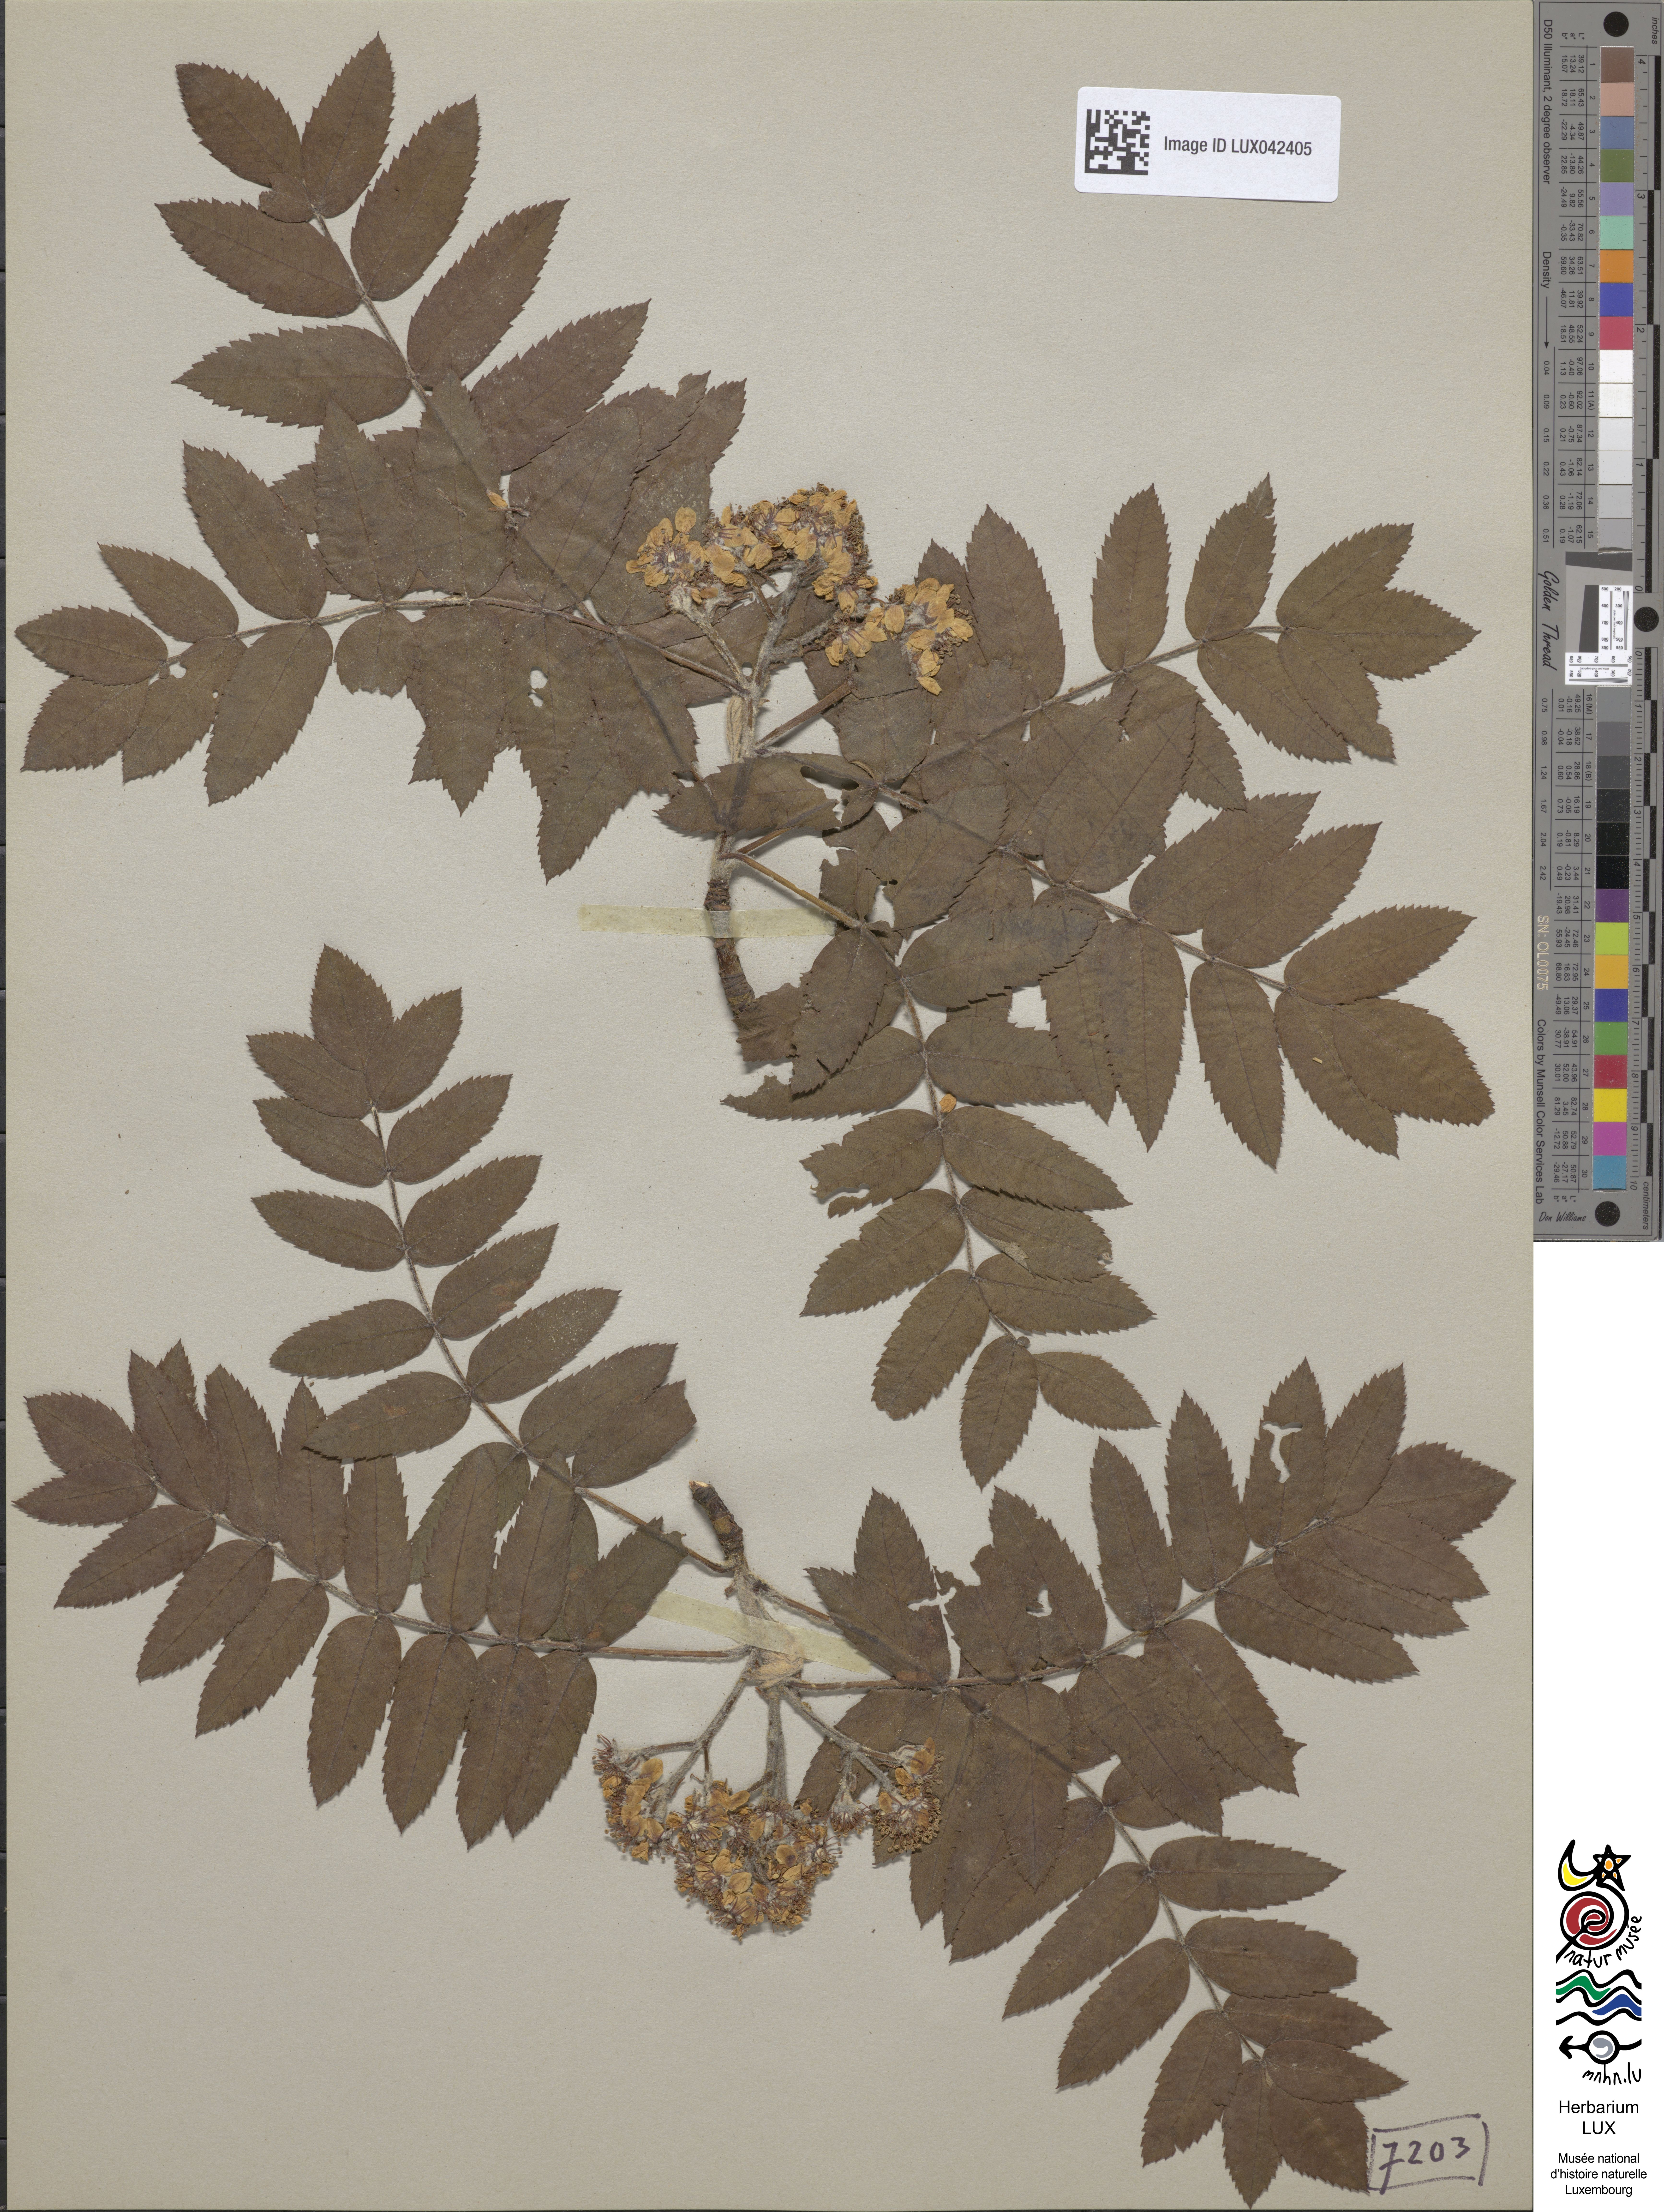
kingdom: Plantae
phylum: Tracheophyta
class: Magnoliopsida
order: Rosales
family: Rosaceae
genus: Cormus
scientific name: Cormus domestica
